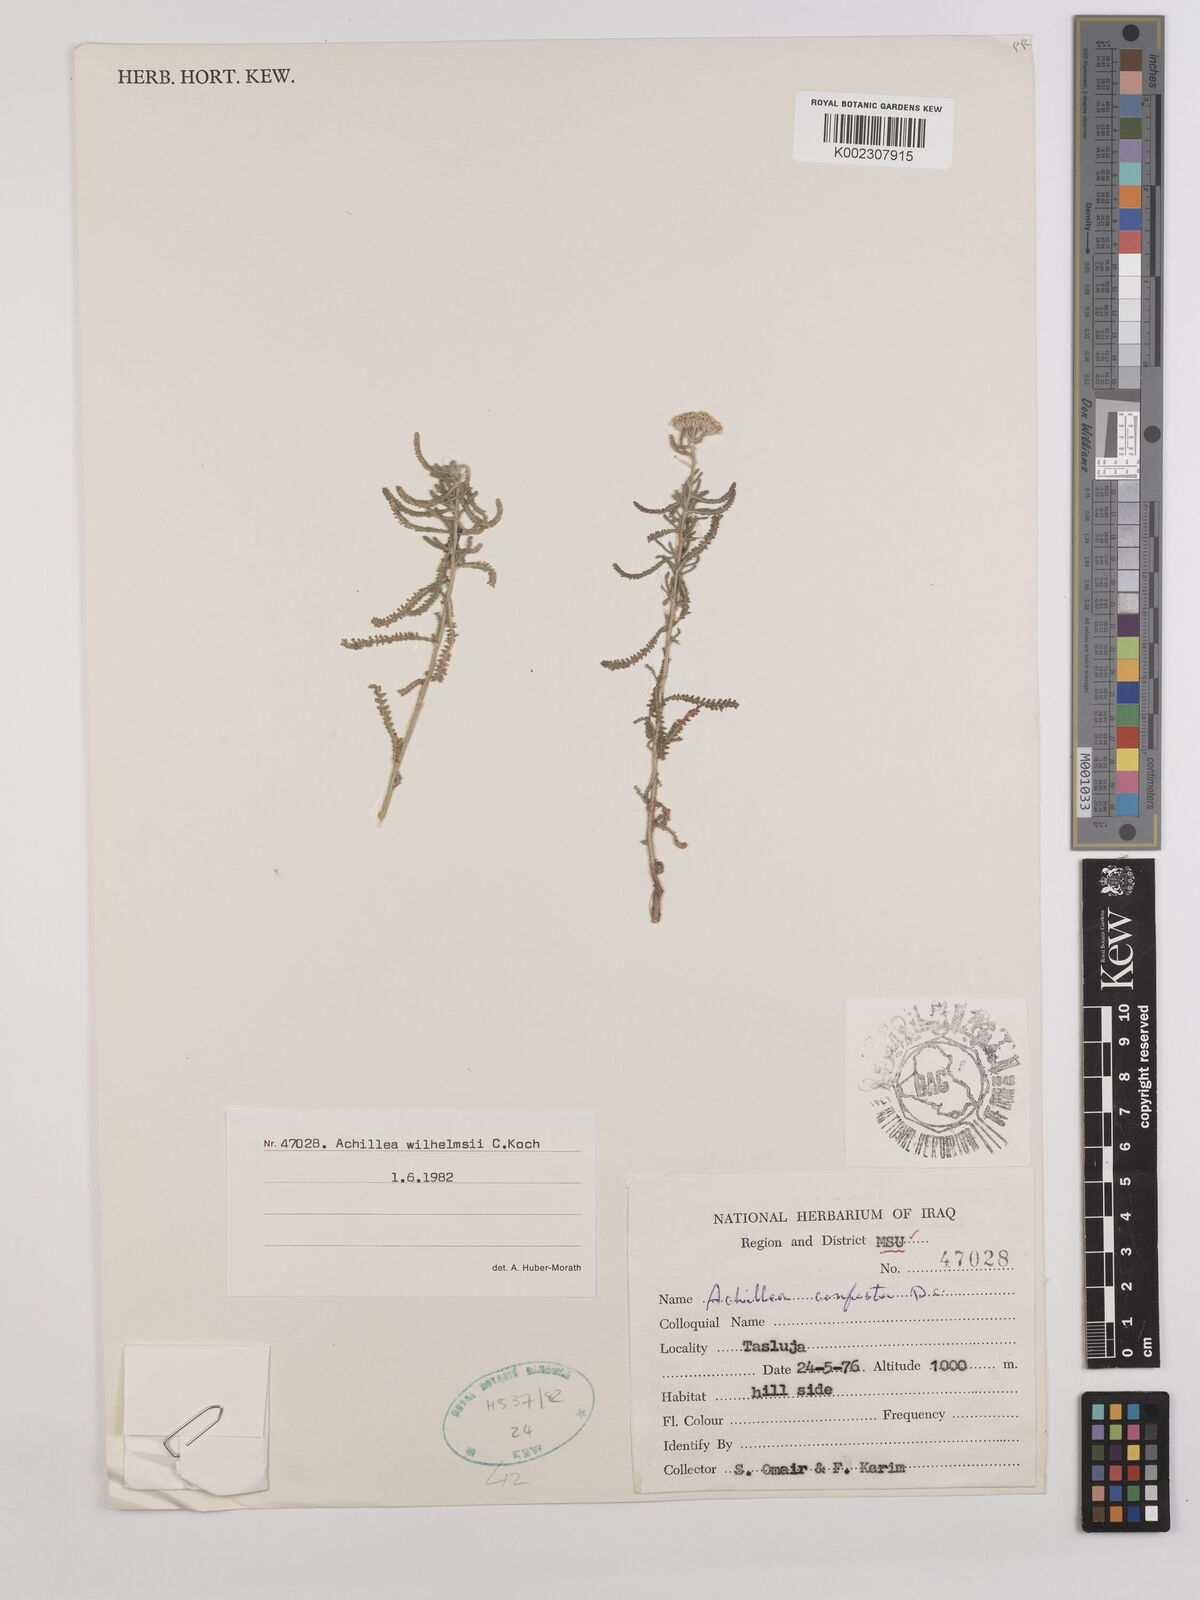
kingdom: Plantae
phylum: Tracheophyta
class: Magnoliopsida
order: Asterales
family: Asteraceae
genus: Achillea
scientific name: Achillea wilhelmsii
